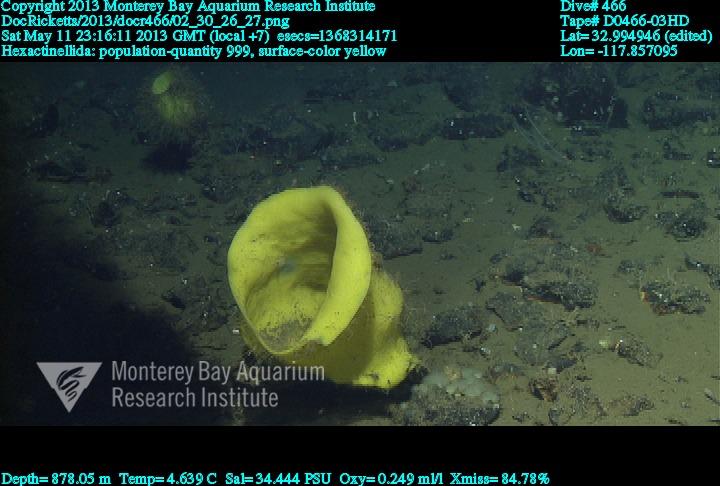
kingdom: Animalia
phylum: Porifera
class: Hexactinellida
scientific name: Hexactinellida
